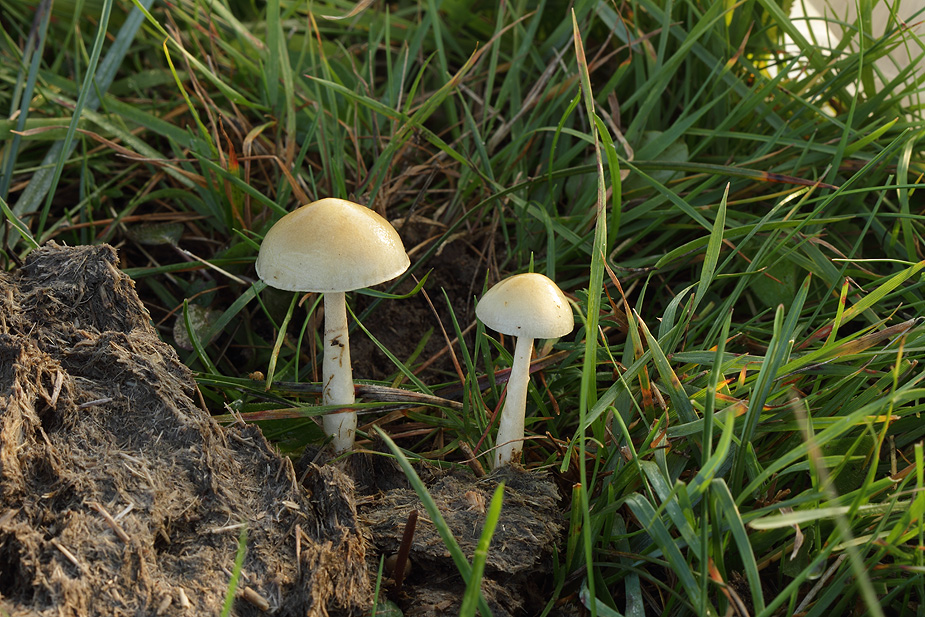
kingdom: Fungi
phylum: Basidiomycota
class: Agaricomycetes
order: Agaricales
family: Strophariaceae
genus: Protostropharia
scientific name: Protostropharia semiglobata
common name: halvkugleformet bredblad
